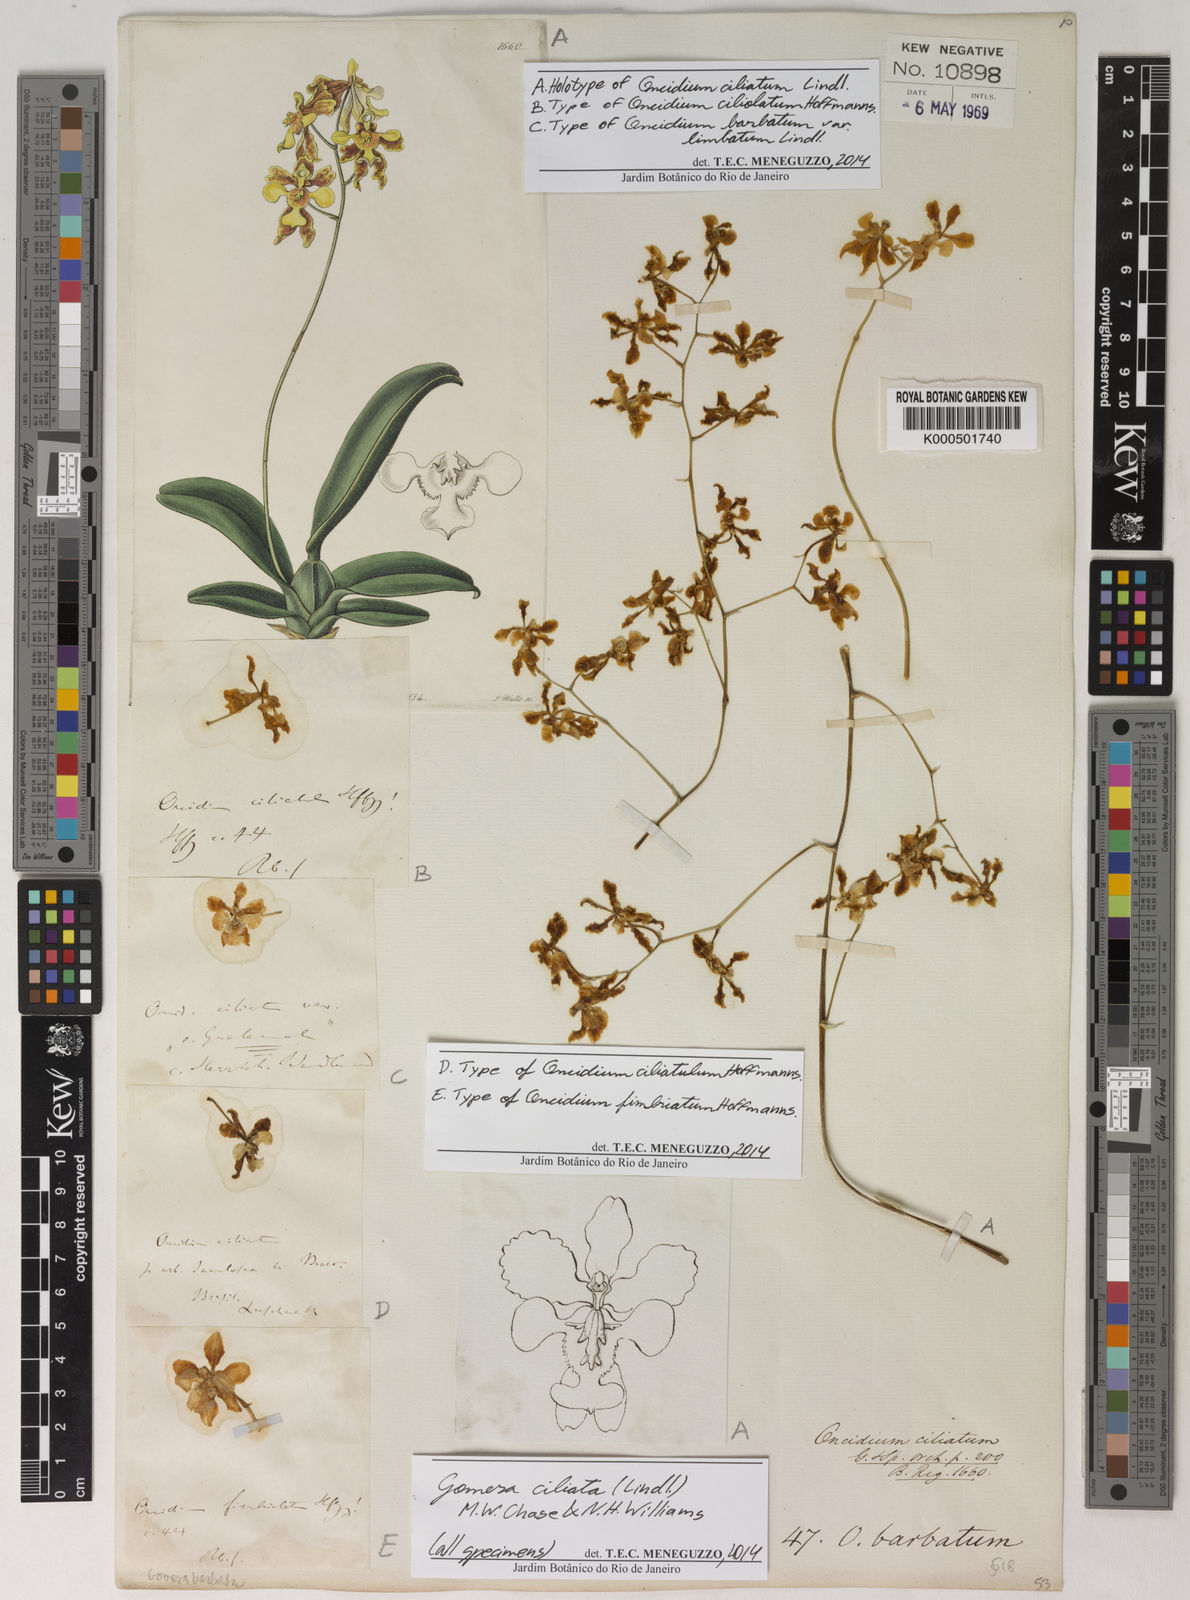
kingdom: Plantae
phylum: Tracheophyta
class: Liliopsida
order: Asparagales
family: Orchidaceae
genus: Gomesa
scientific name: Gomesa ciliata
